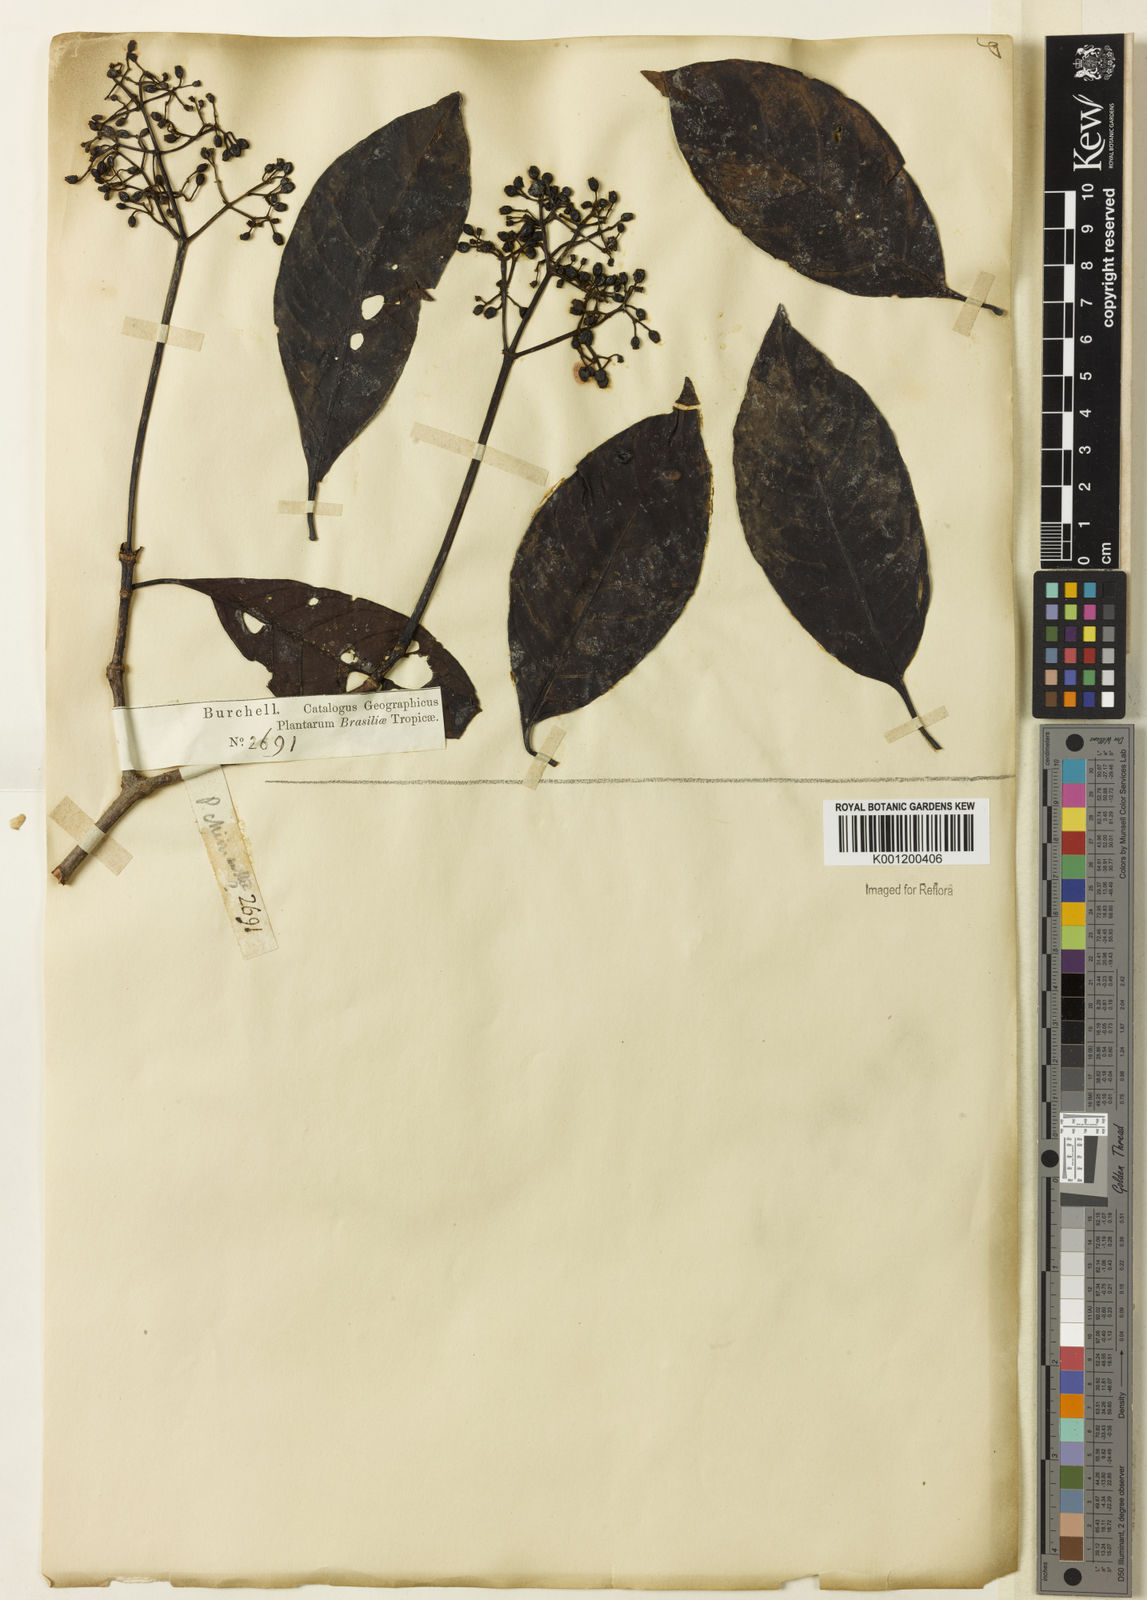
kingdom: Plantae
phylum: Tracheophyta
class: Magnoliopsida
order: Gentianales
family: Rubiaceae
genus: Psychotria
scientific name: Psychotria carthagenensis
